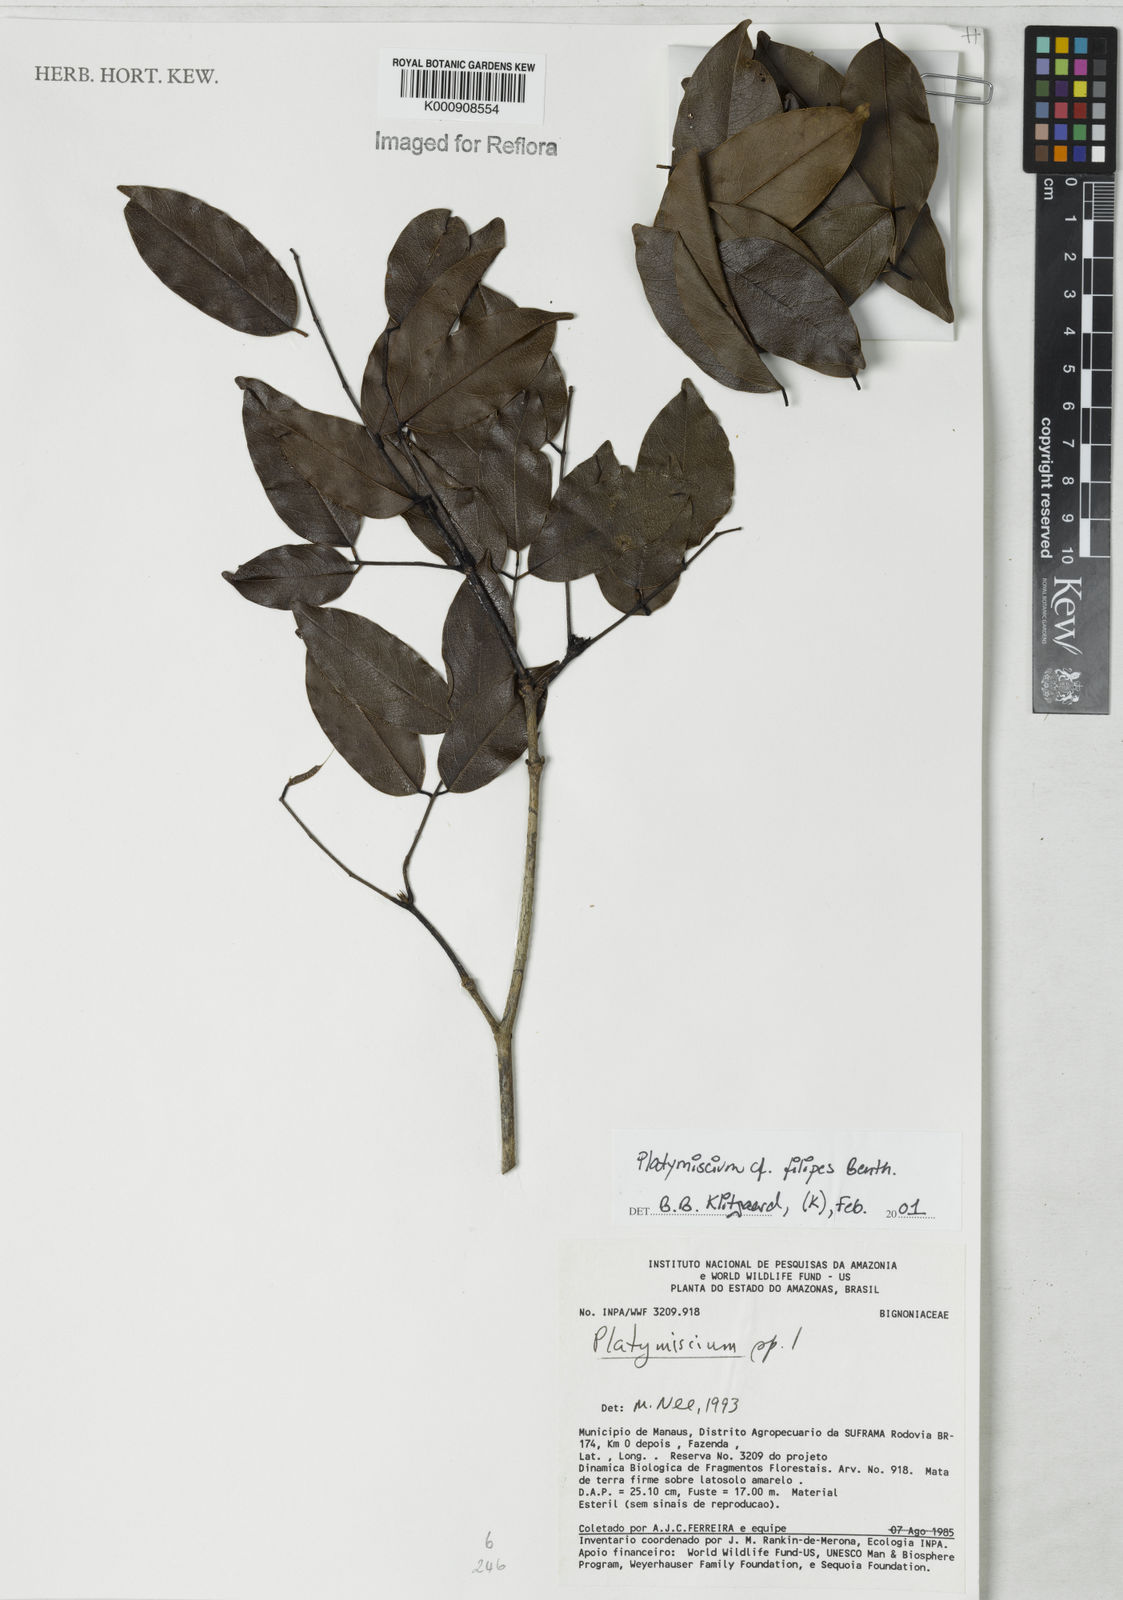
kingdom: Plantae
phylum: Tracheophyta
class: Magnoliopsida
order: Fabales
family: Fabaceae
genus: Platymiscium
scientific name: Platymiscium filipes
